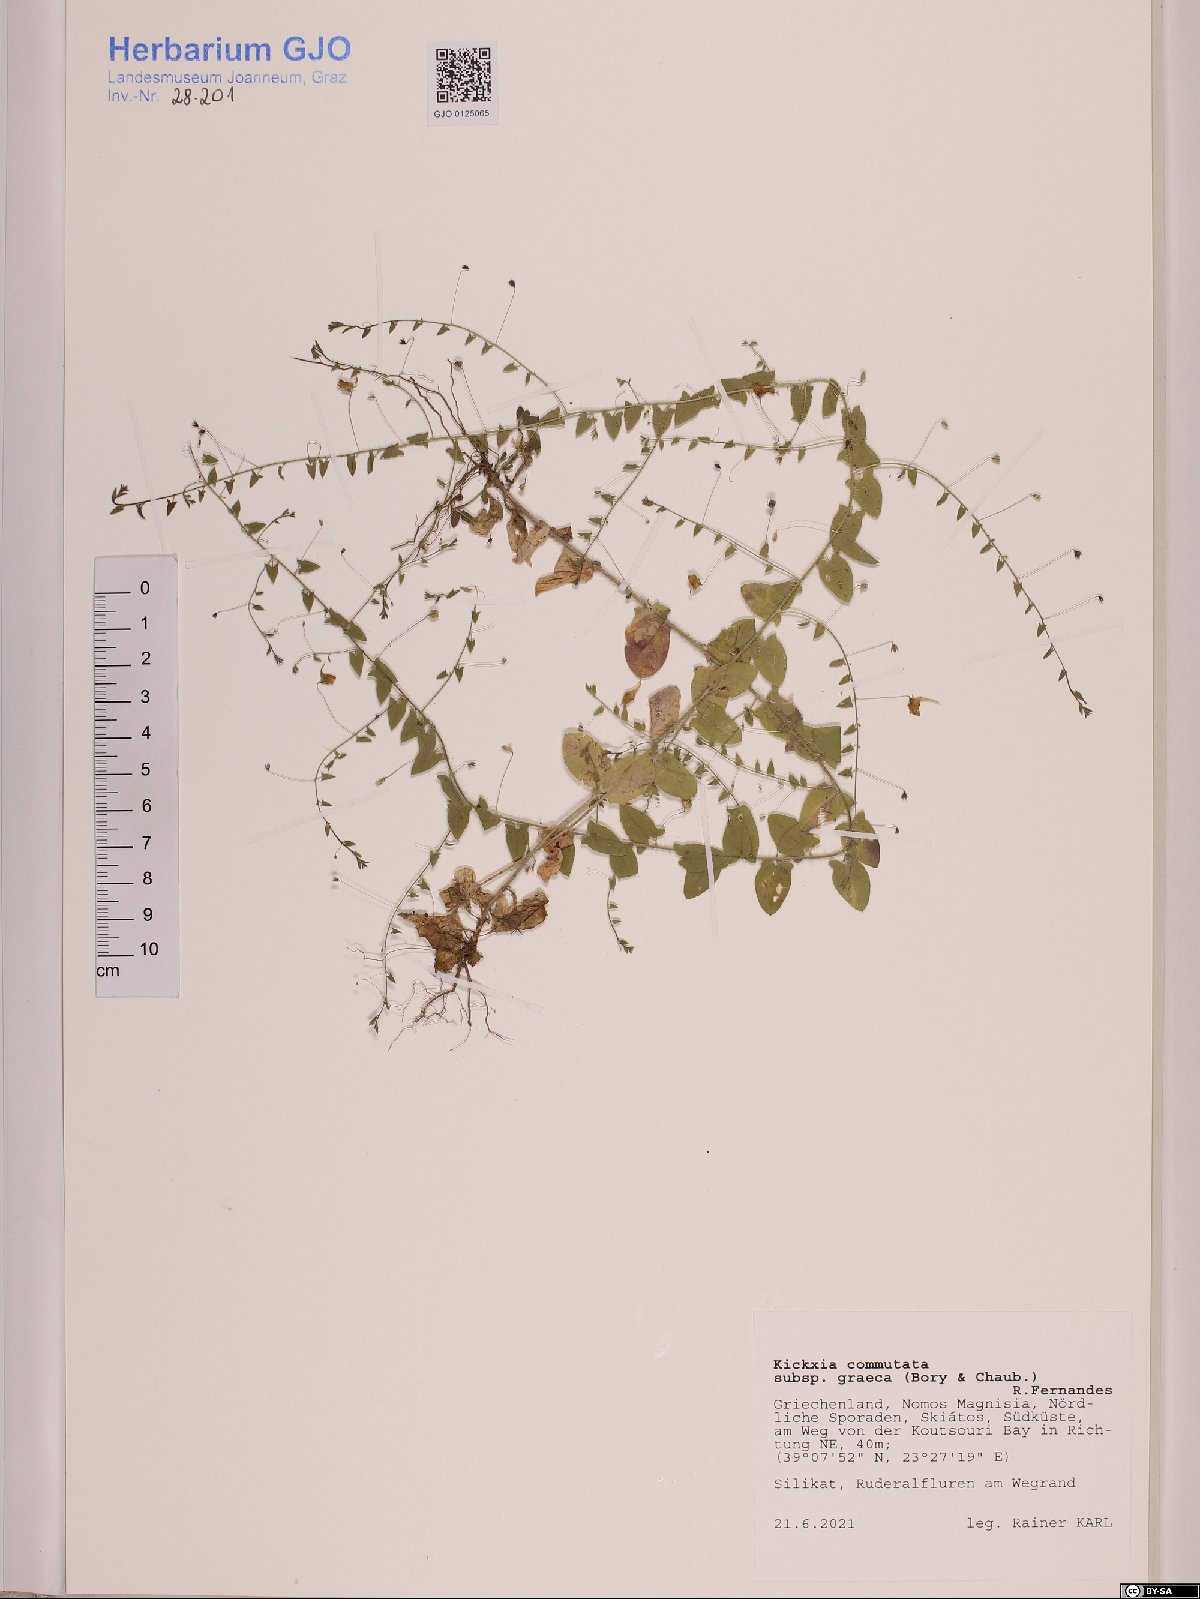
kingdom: Plantae
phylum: Tracheophyta
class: Magnoliopsida
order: Lamiales
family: Plantaginaceae
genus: Kickxia
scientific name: Kickxia commutata
